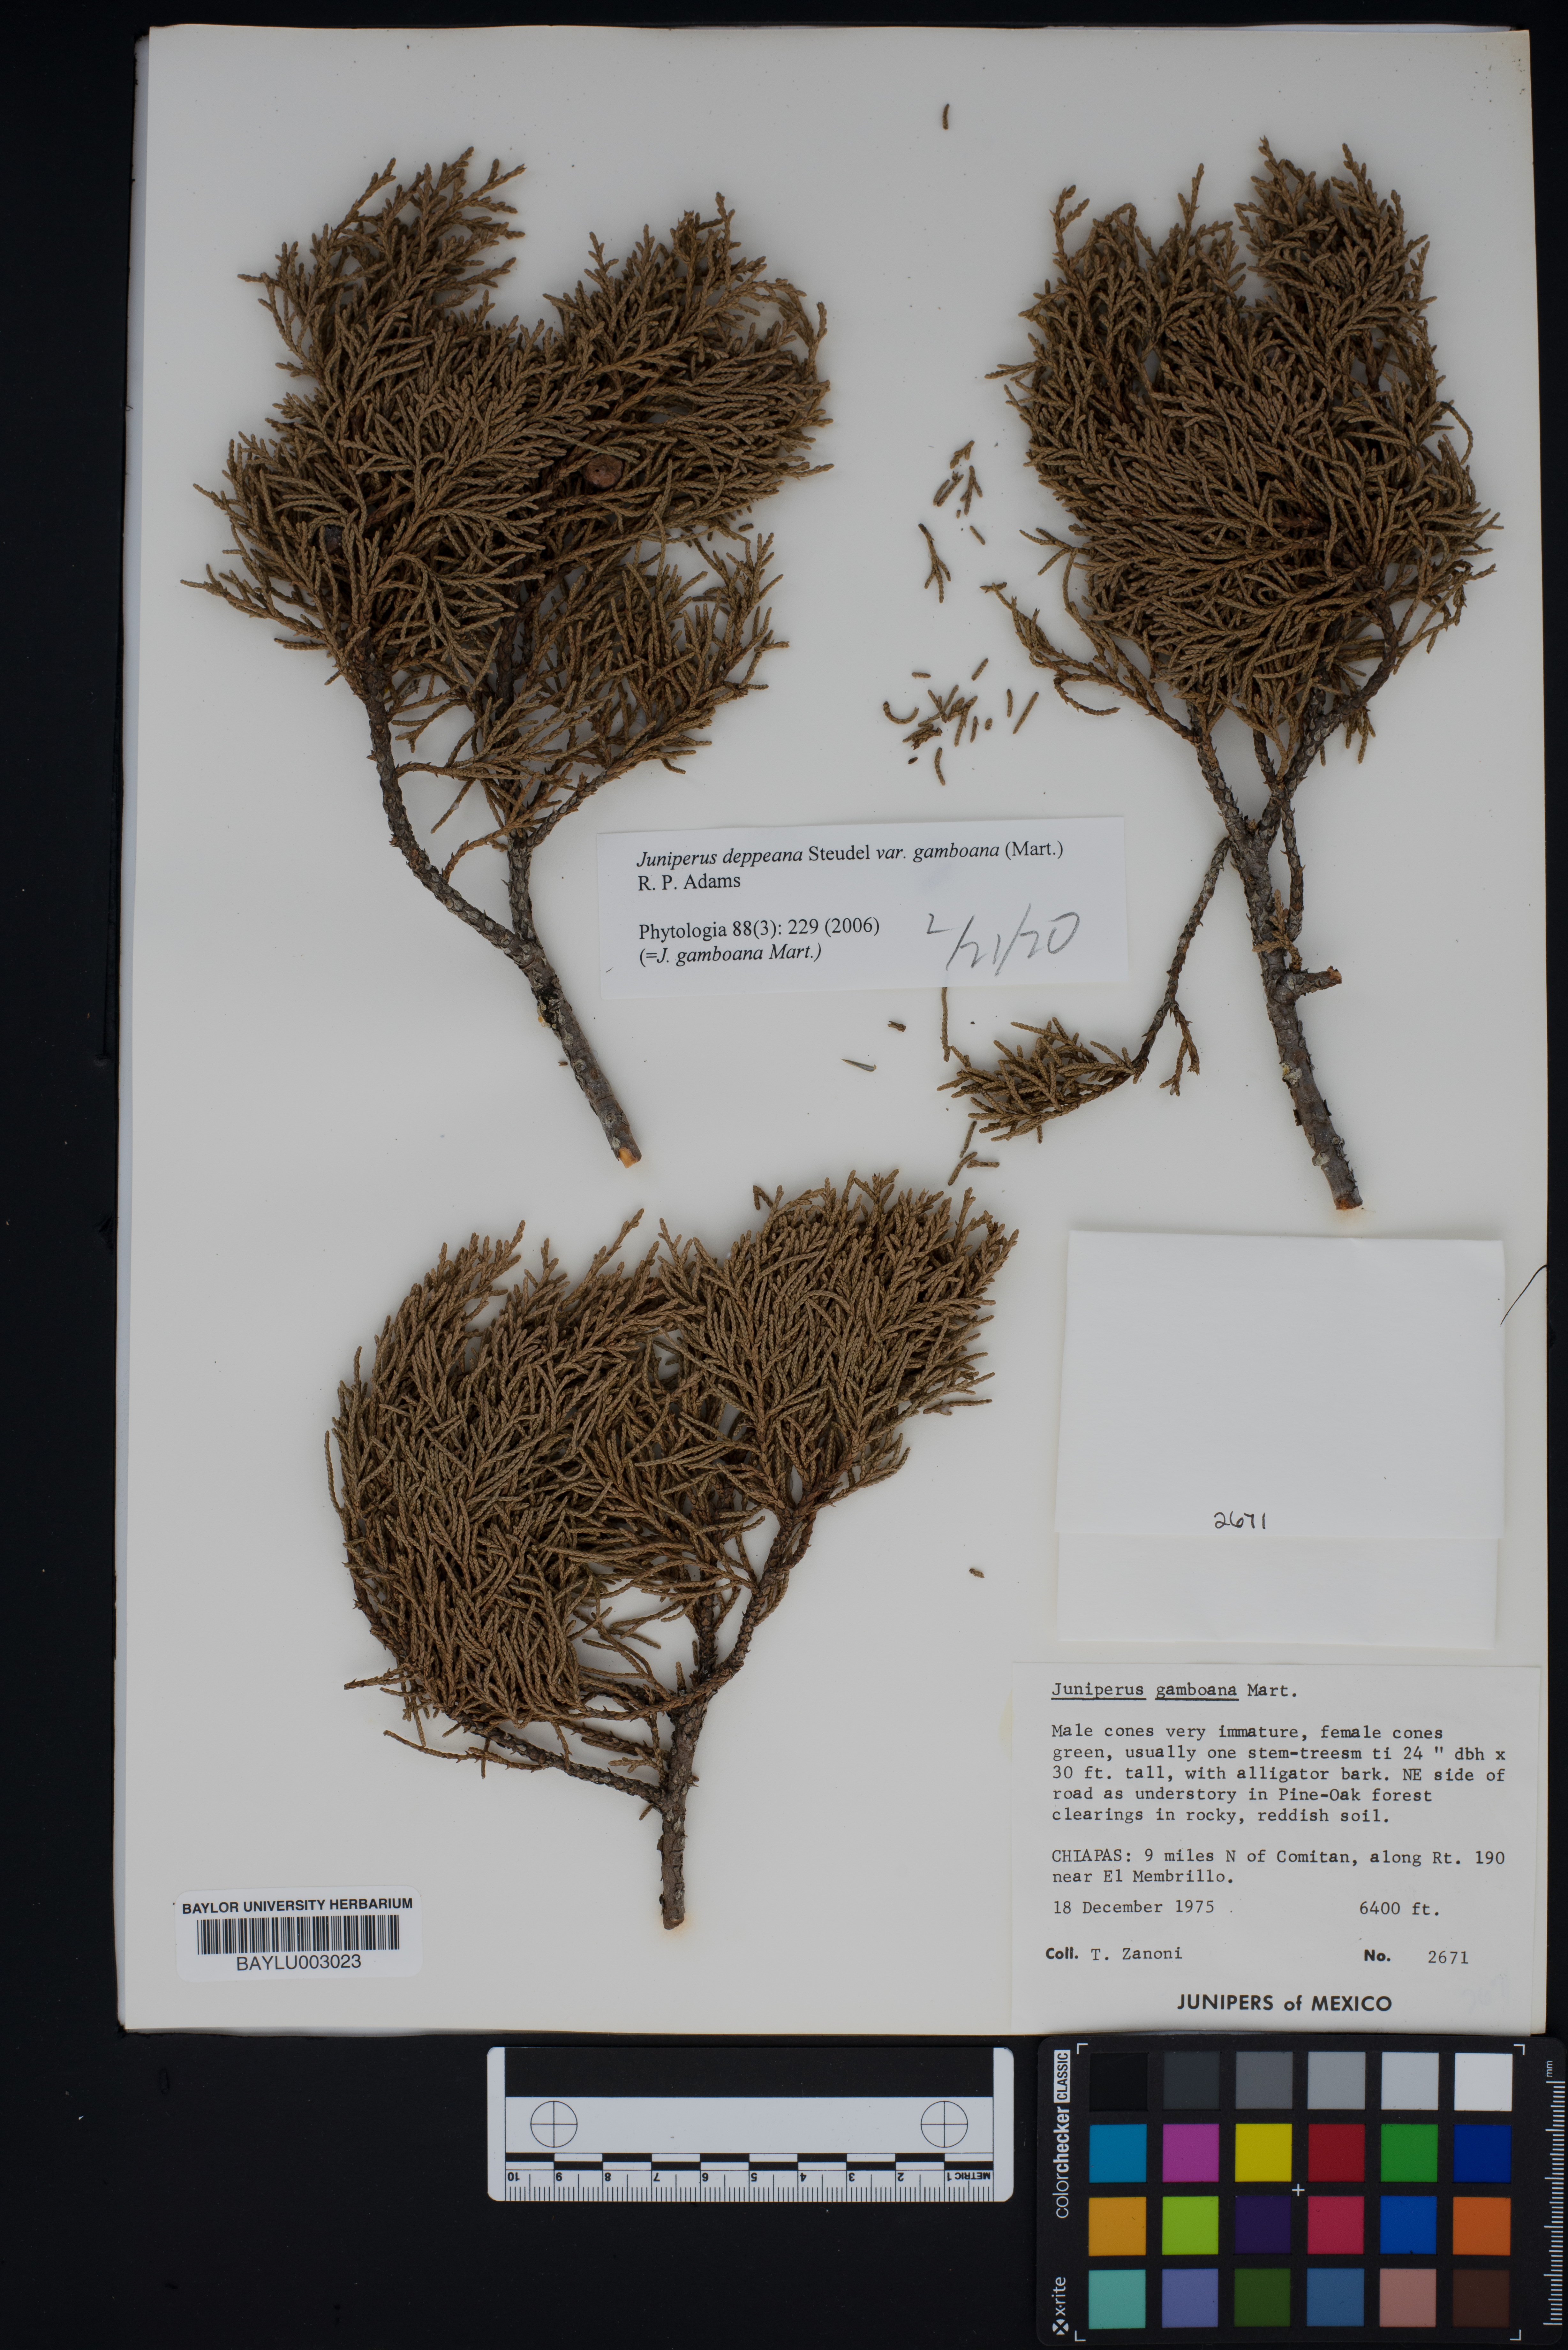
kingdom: Plantae
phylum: Tracheophyta
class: Pinopsida
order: Pinales
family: Cupressaceae
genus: Juniperus
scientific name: Juniperus gamboana
